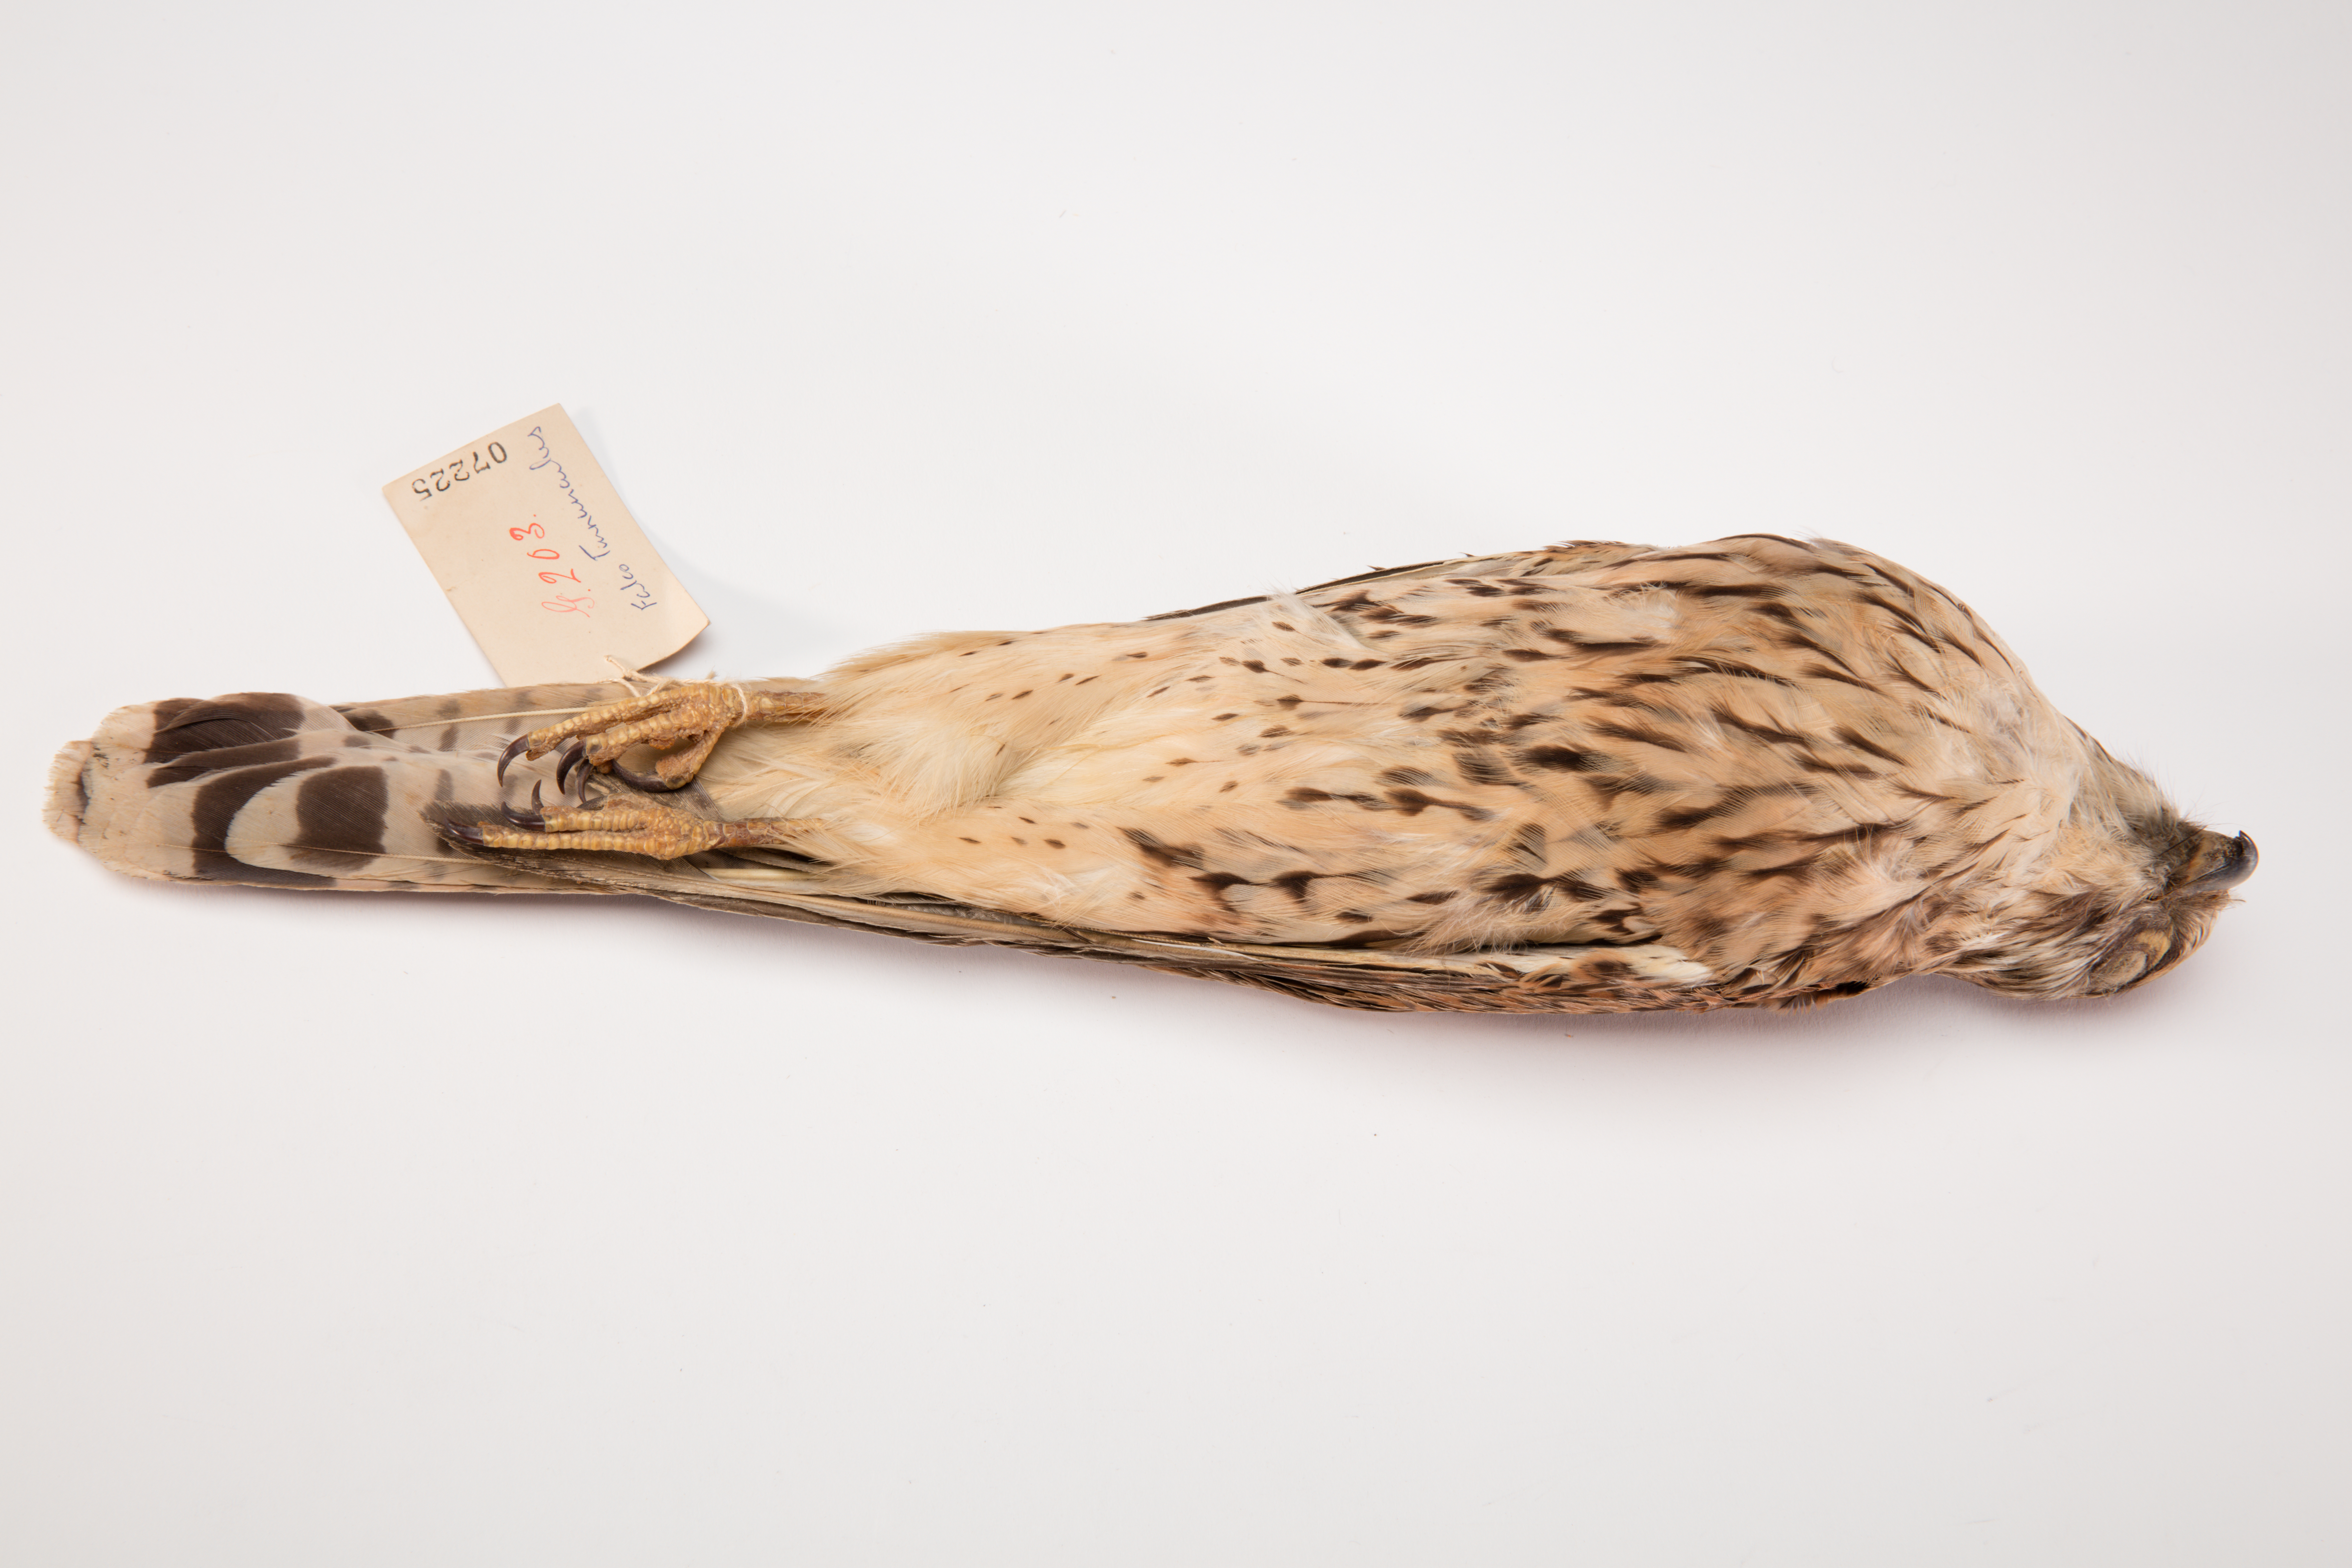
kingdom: Animalia
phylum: Chordata
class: Aves
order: Falconiformes
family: Falconidae
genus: Falco
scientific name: Falco tinnunculus
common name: Common kestrel
